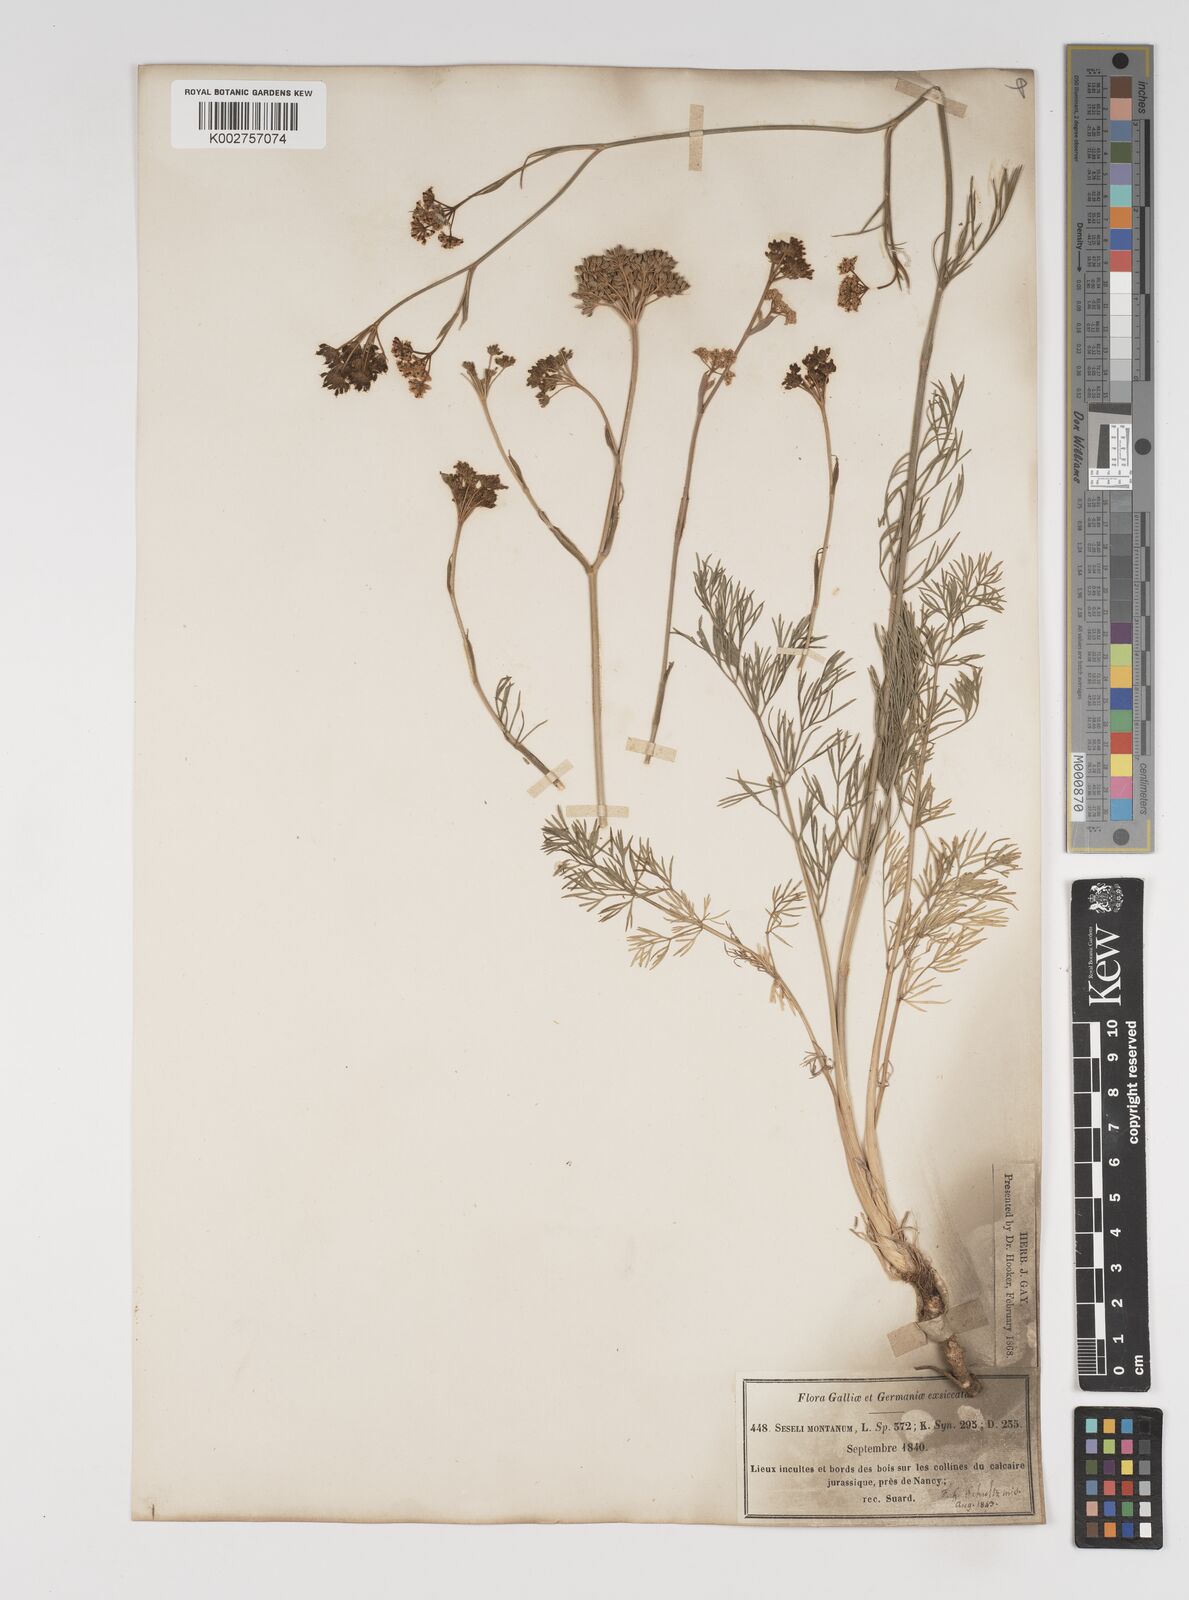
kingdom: Plantae
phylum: Tracheophyta
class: Magnoliopsida
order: Apiales
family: Apiaceae
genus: Seseli
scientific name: Seseli montanum
